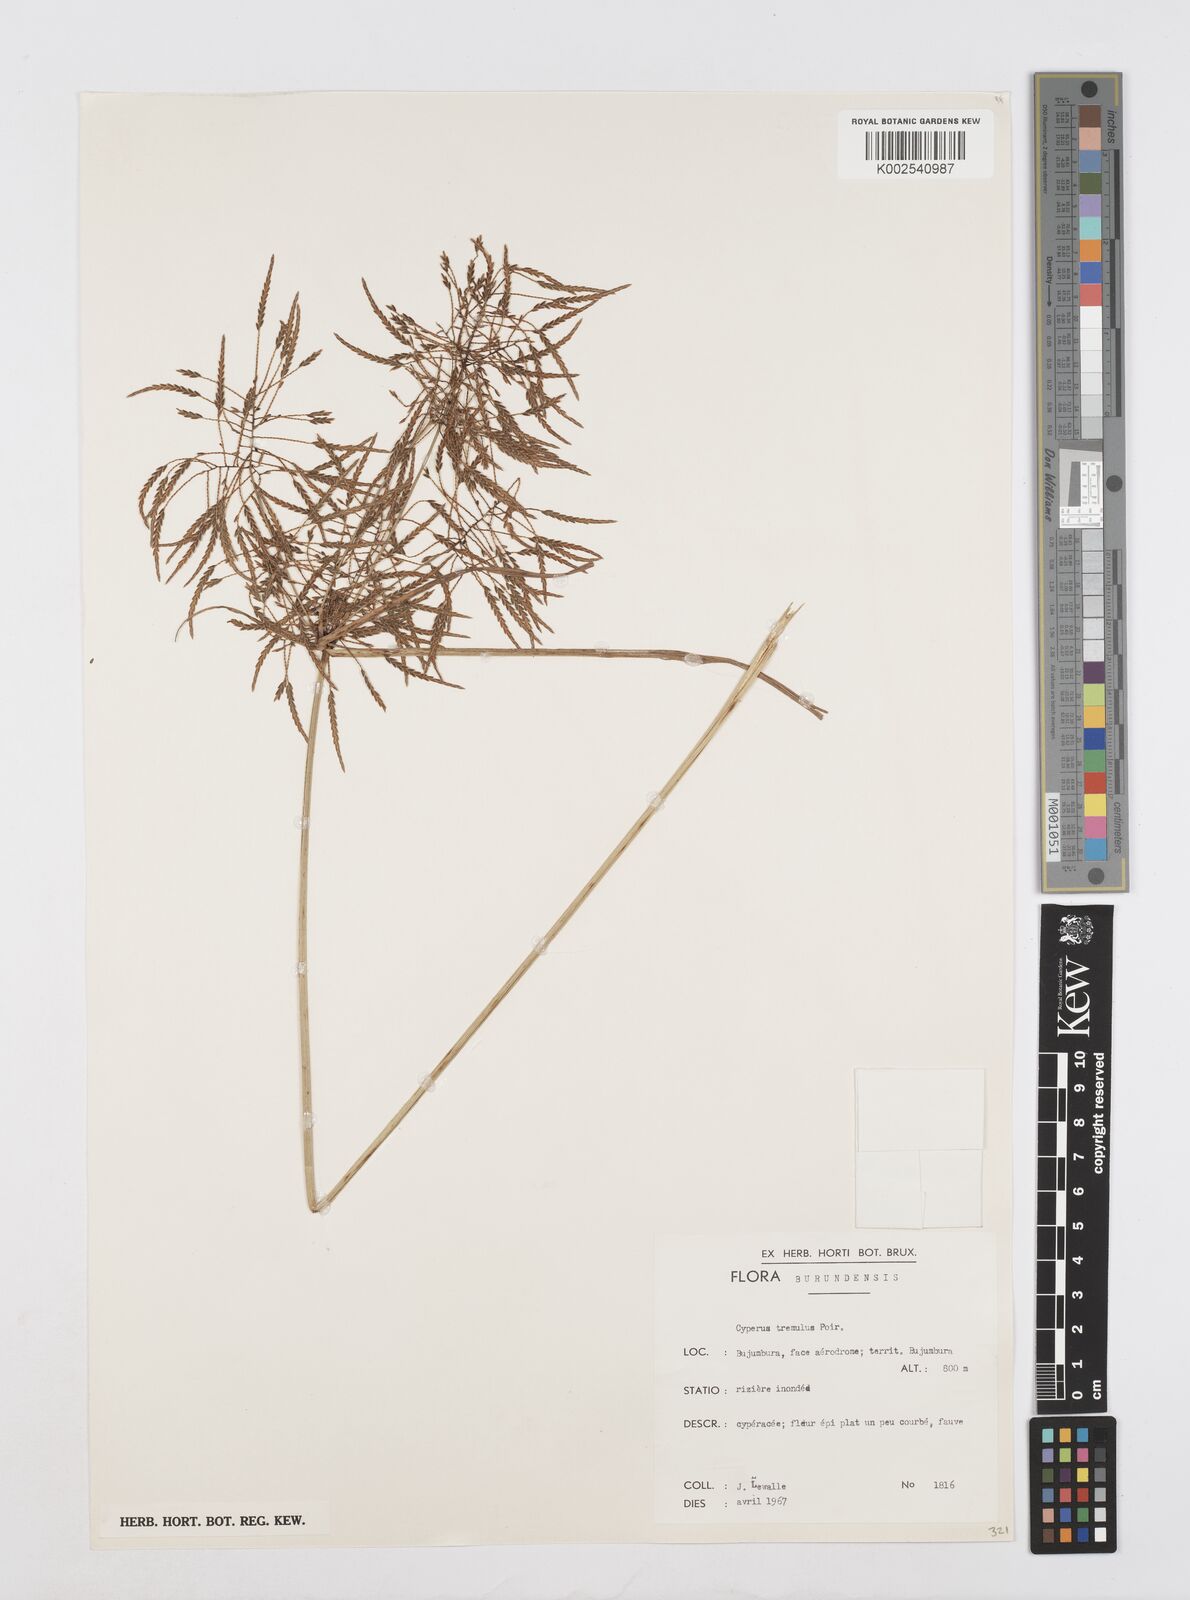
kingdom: Plantae
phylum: Tracheophyta
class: Liliopsida
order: Poales
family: Cyperaceae
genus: Cyperus
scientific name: Cyperus macrostachyos
